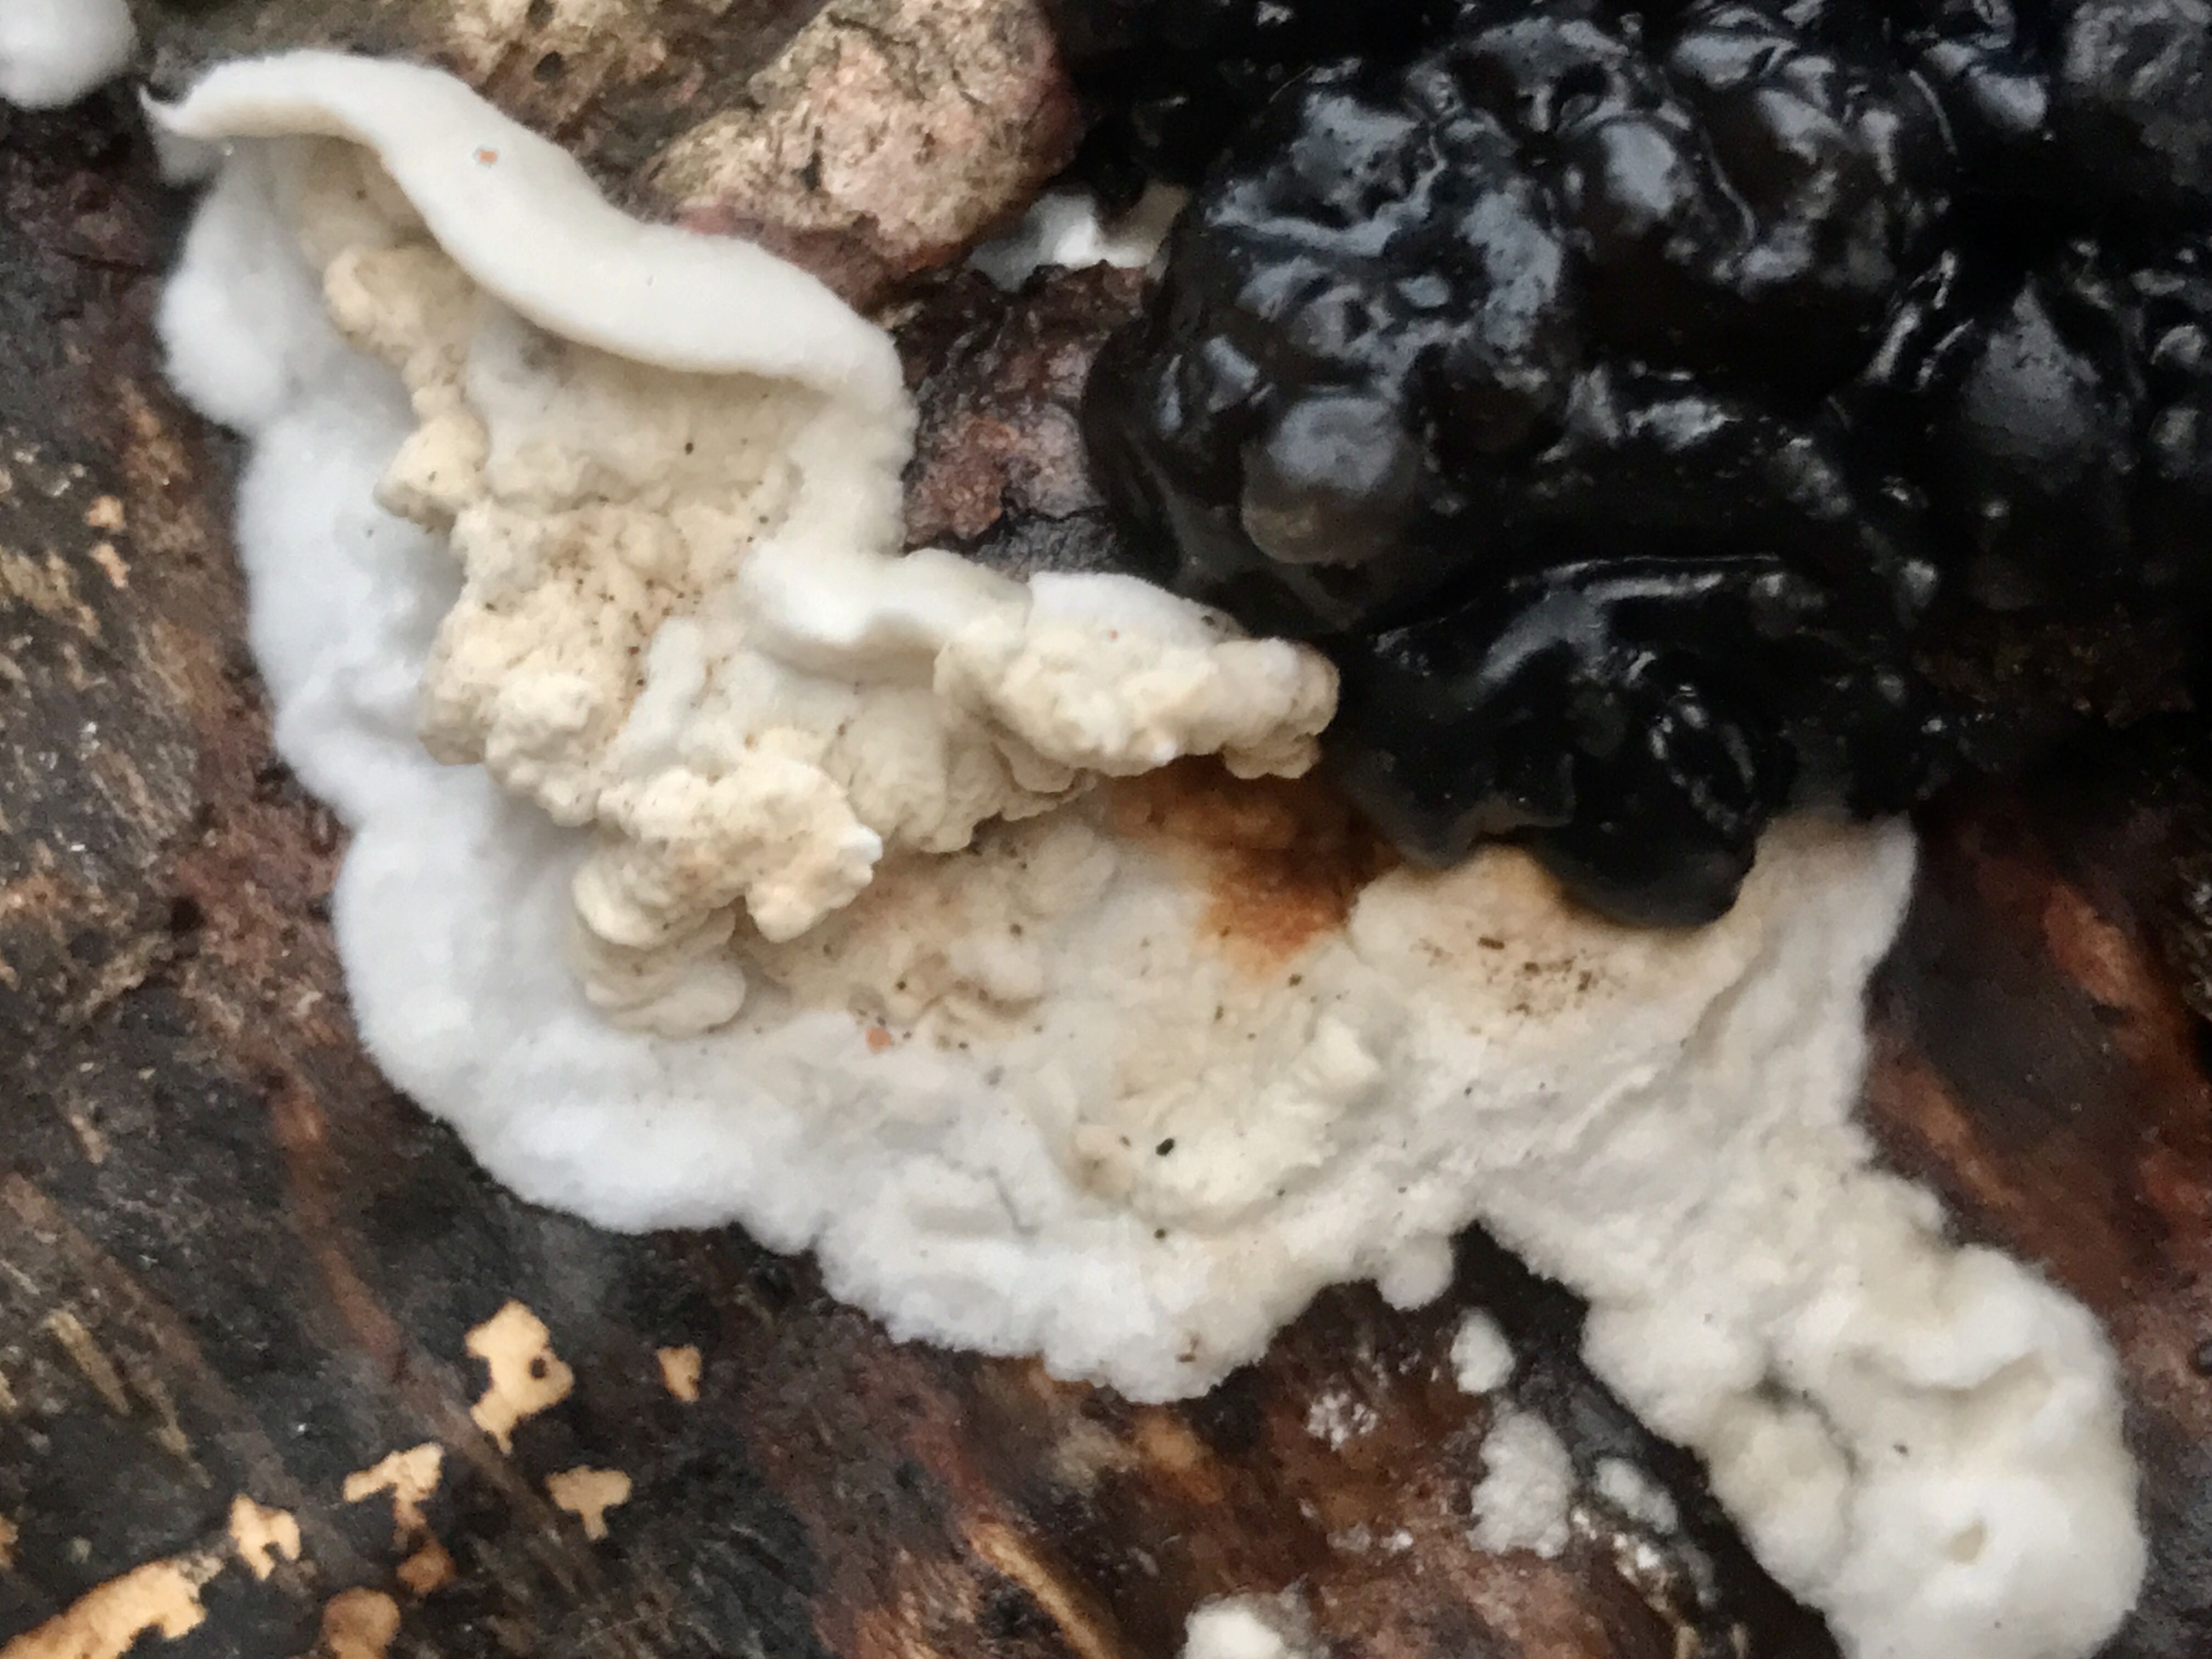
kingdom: Fungi
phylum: Basidiomycota
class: Agaricomycetes
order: Polyporales
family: Irpicaceae
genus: Byssomerulius
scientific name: Byssomerulius corium
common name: læder-åresvamp
